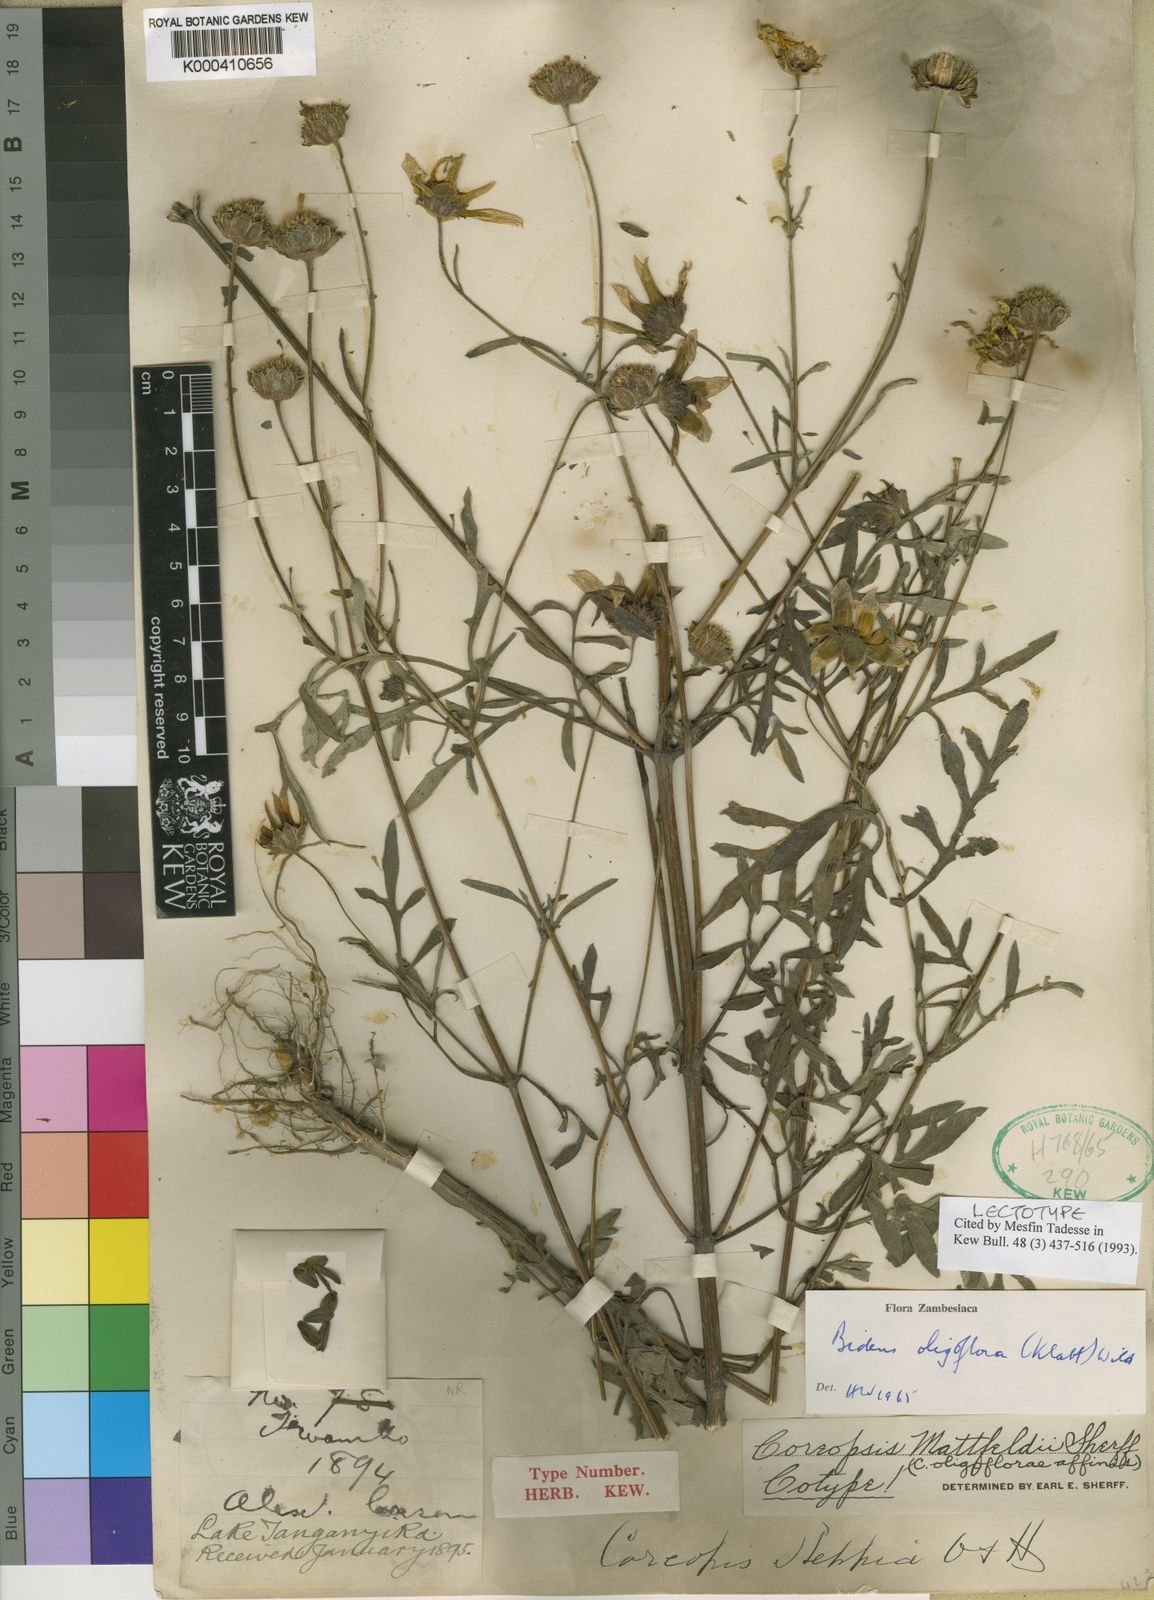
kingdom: Plantae
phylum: Tracheophyta
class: Magnoliopsida
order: Asterales
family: Asteraceae
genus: Bidens
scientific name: Bidens oligoflora
